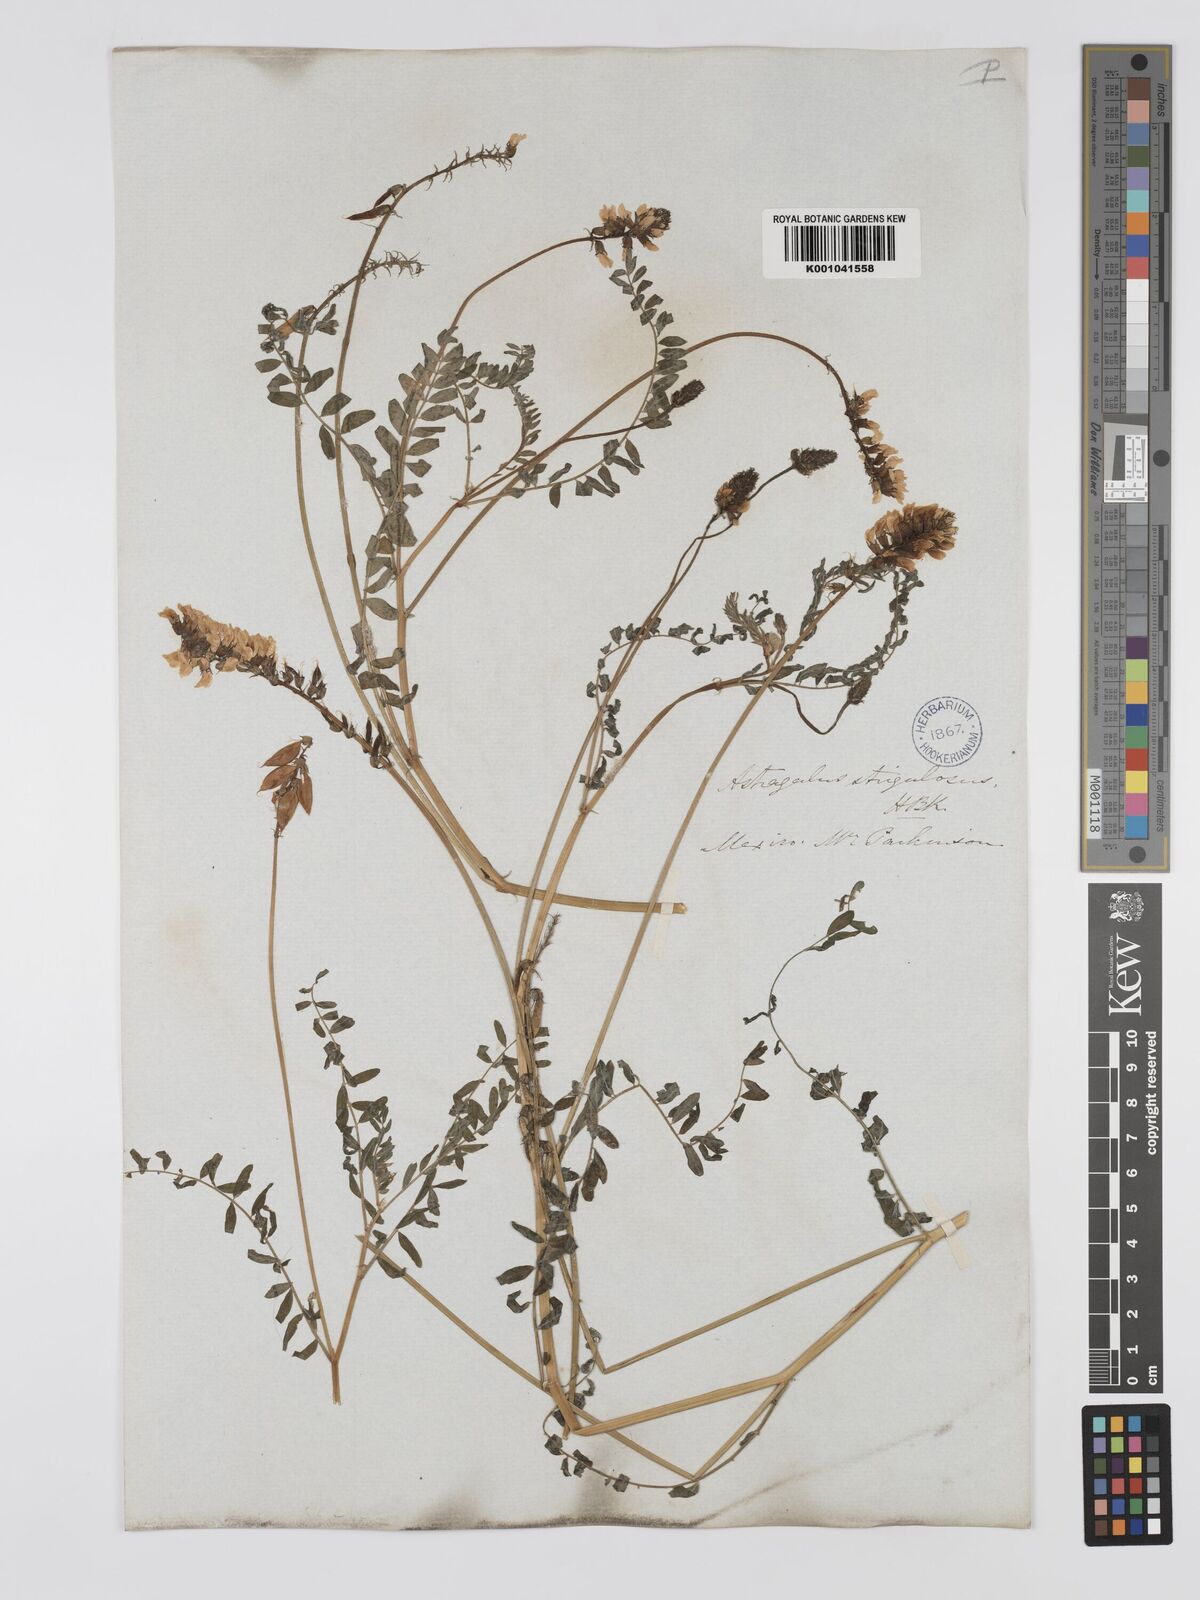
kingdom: Plantae
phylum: Tracheophyta
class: Magnoliopsida
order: Fabales
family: Fabaceae
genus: Astragalus
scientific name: Astragalus strigulosus
